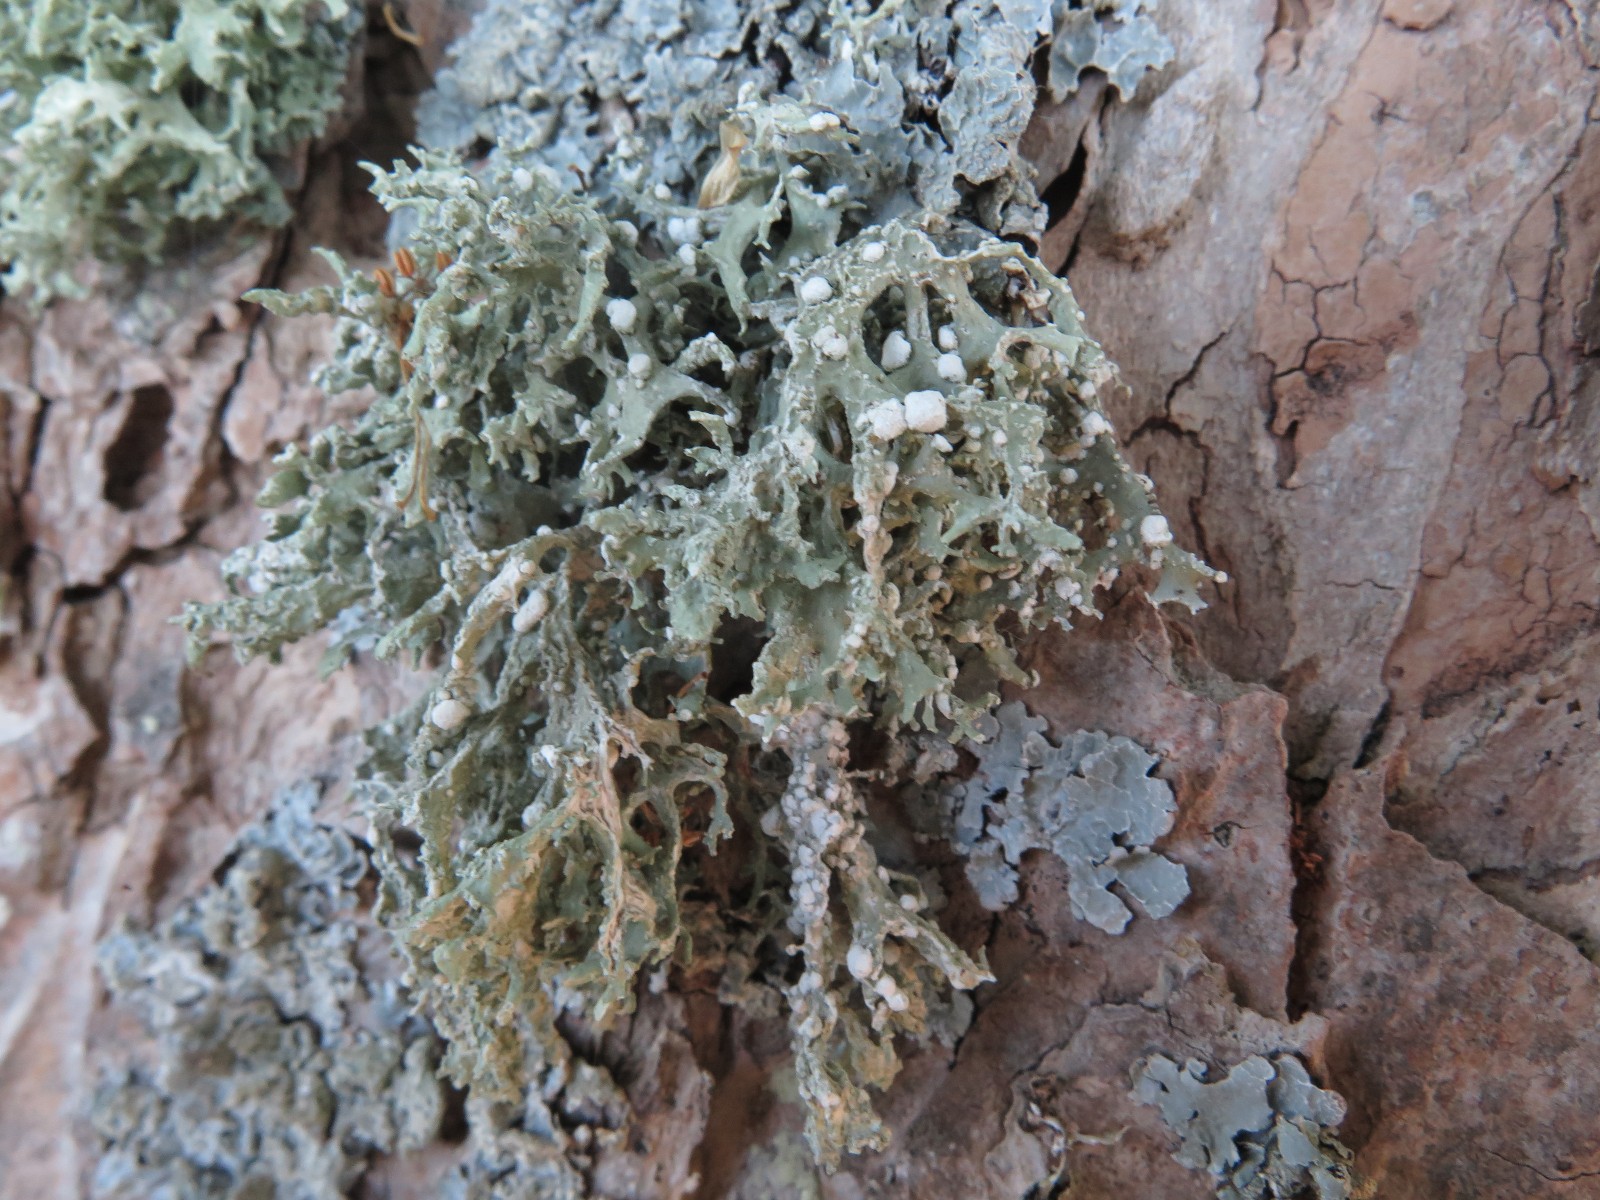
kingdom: Fungi
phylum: Ascomycota
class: Lecanoromycetes
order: Lecanorales
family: Ramalinaceae
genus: Ramalina
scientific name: Ramalina fastigiata
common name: tue-grenlav
